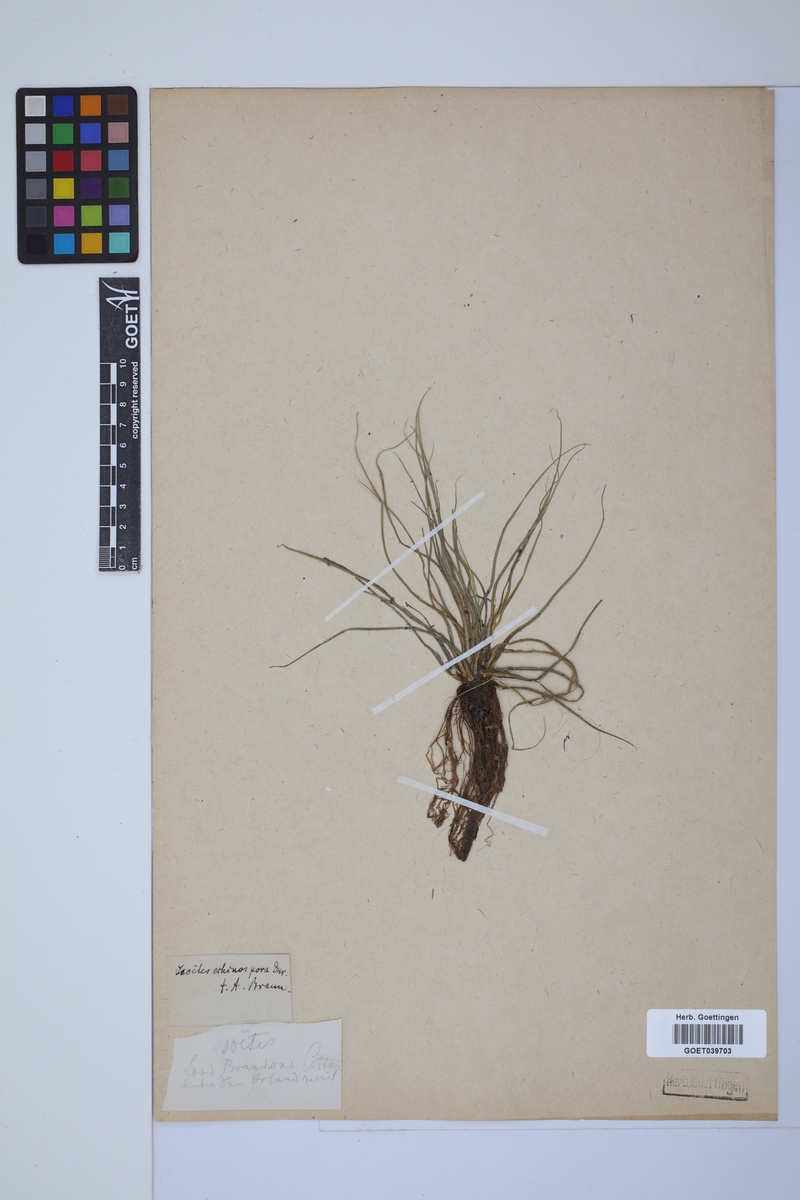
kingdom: Plantae
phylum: Tracheophyta
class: Lycopodiopsida
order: Isoetales
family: Isoetaceae
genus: Isoetes
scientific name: Isoetes echinospora
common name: Spring quillwort
